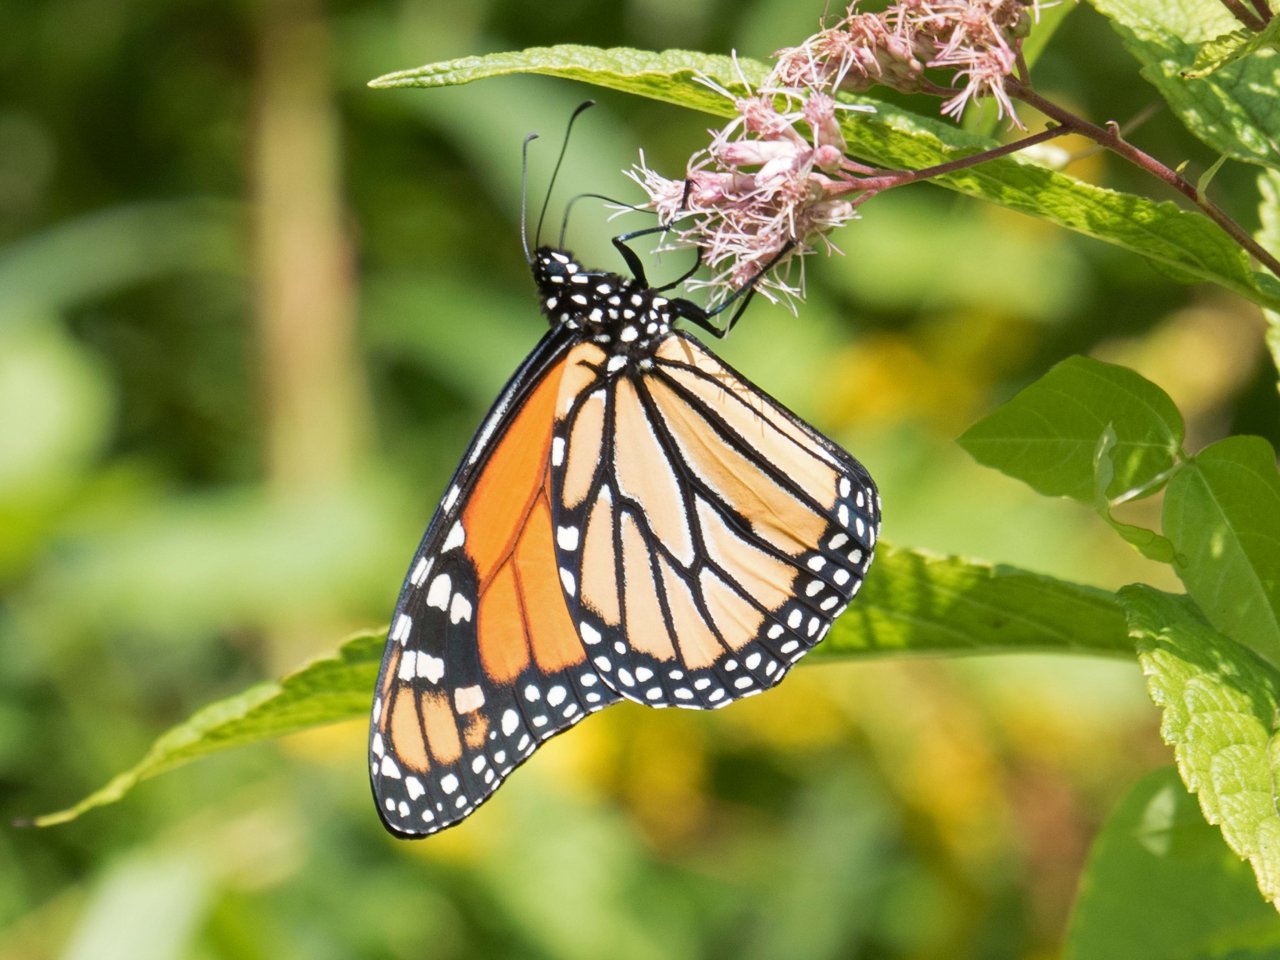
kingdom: Animalia
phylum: Arthropoda
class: Insecta
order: Lepidoptera
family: Nymphalidae
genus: Danaus
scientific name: Danaus plexippus
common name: Monarch
